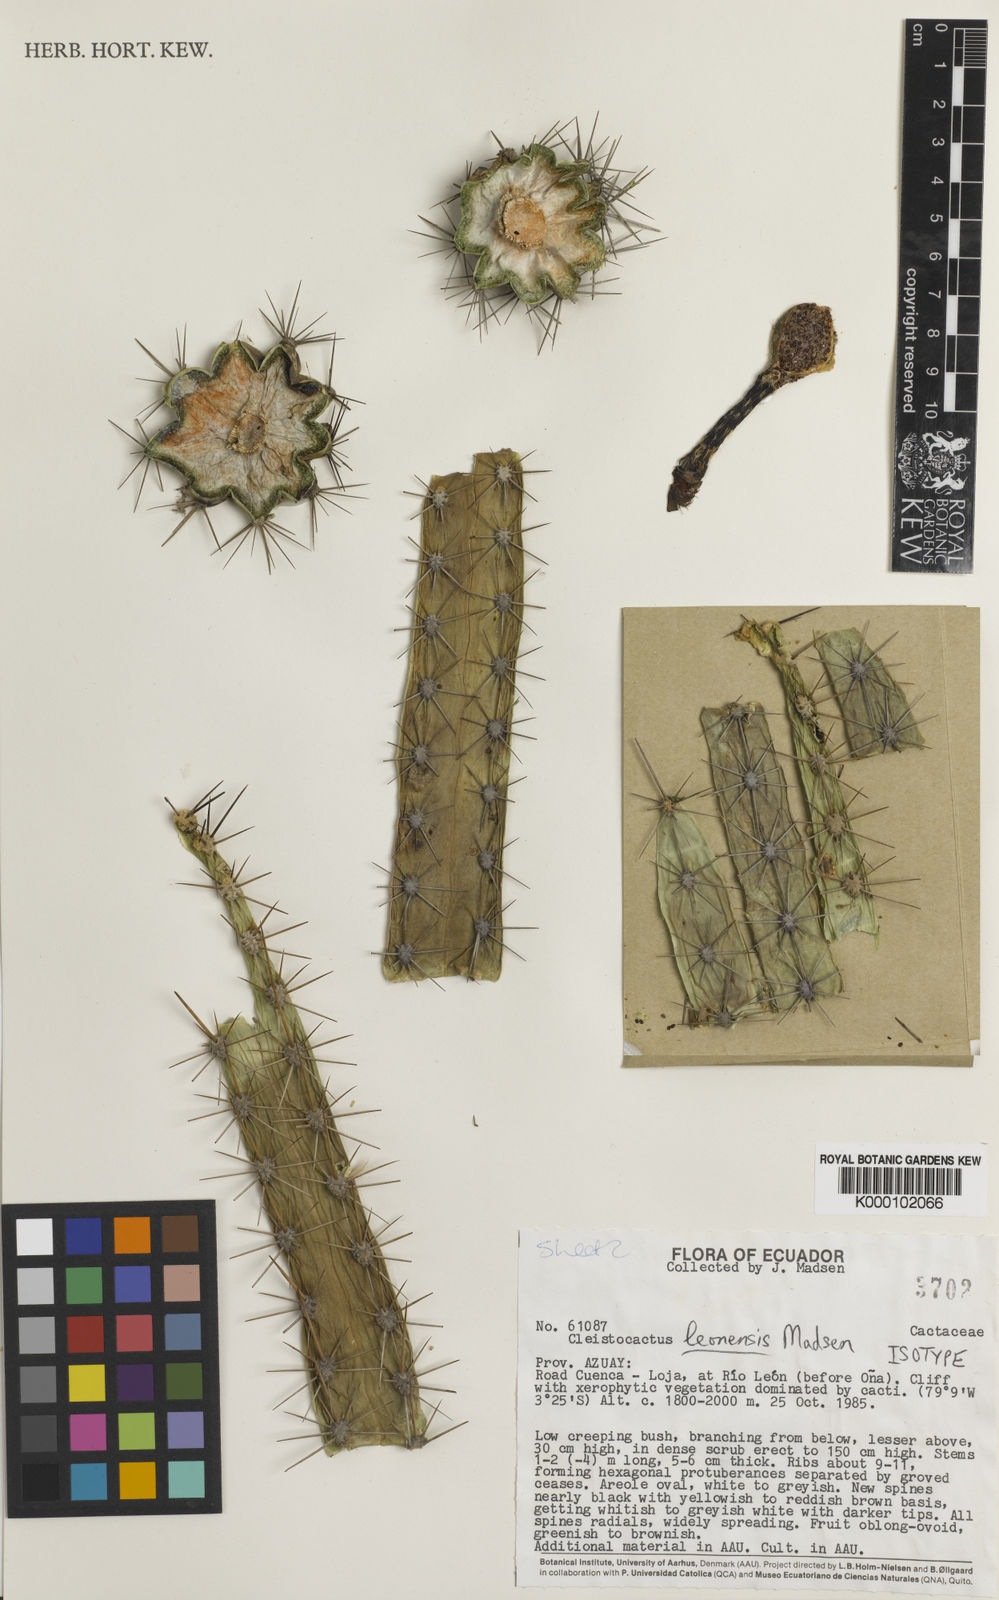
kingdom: Plantae
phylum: Tracheophyta
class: Magnoliopsida
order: Caryophyllales
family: Cactaceae
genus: Borzicactus
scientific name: Borzicactus leonensis
